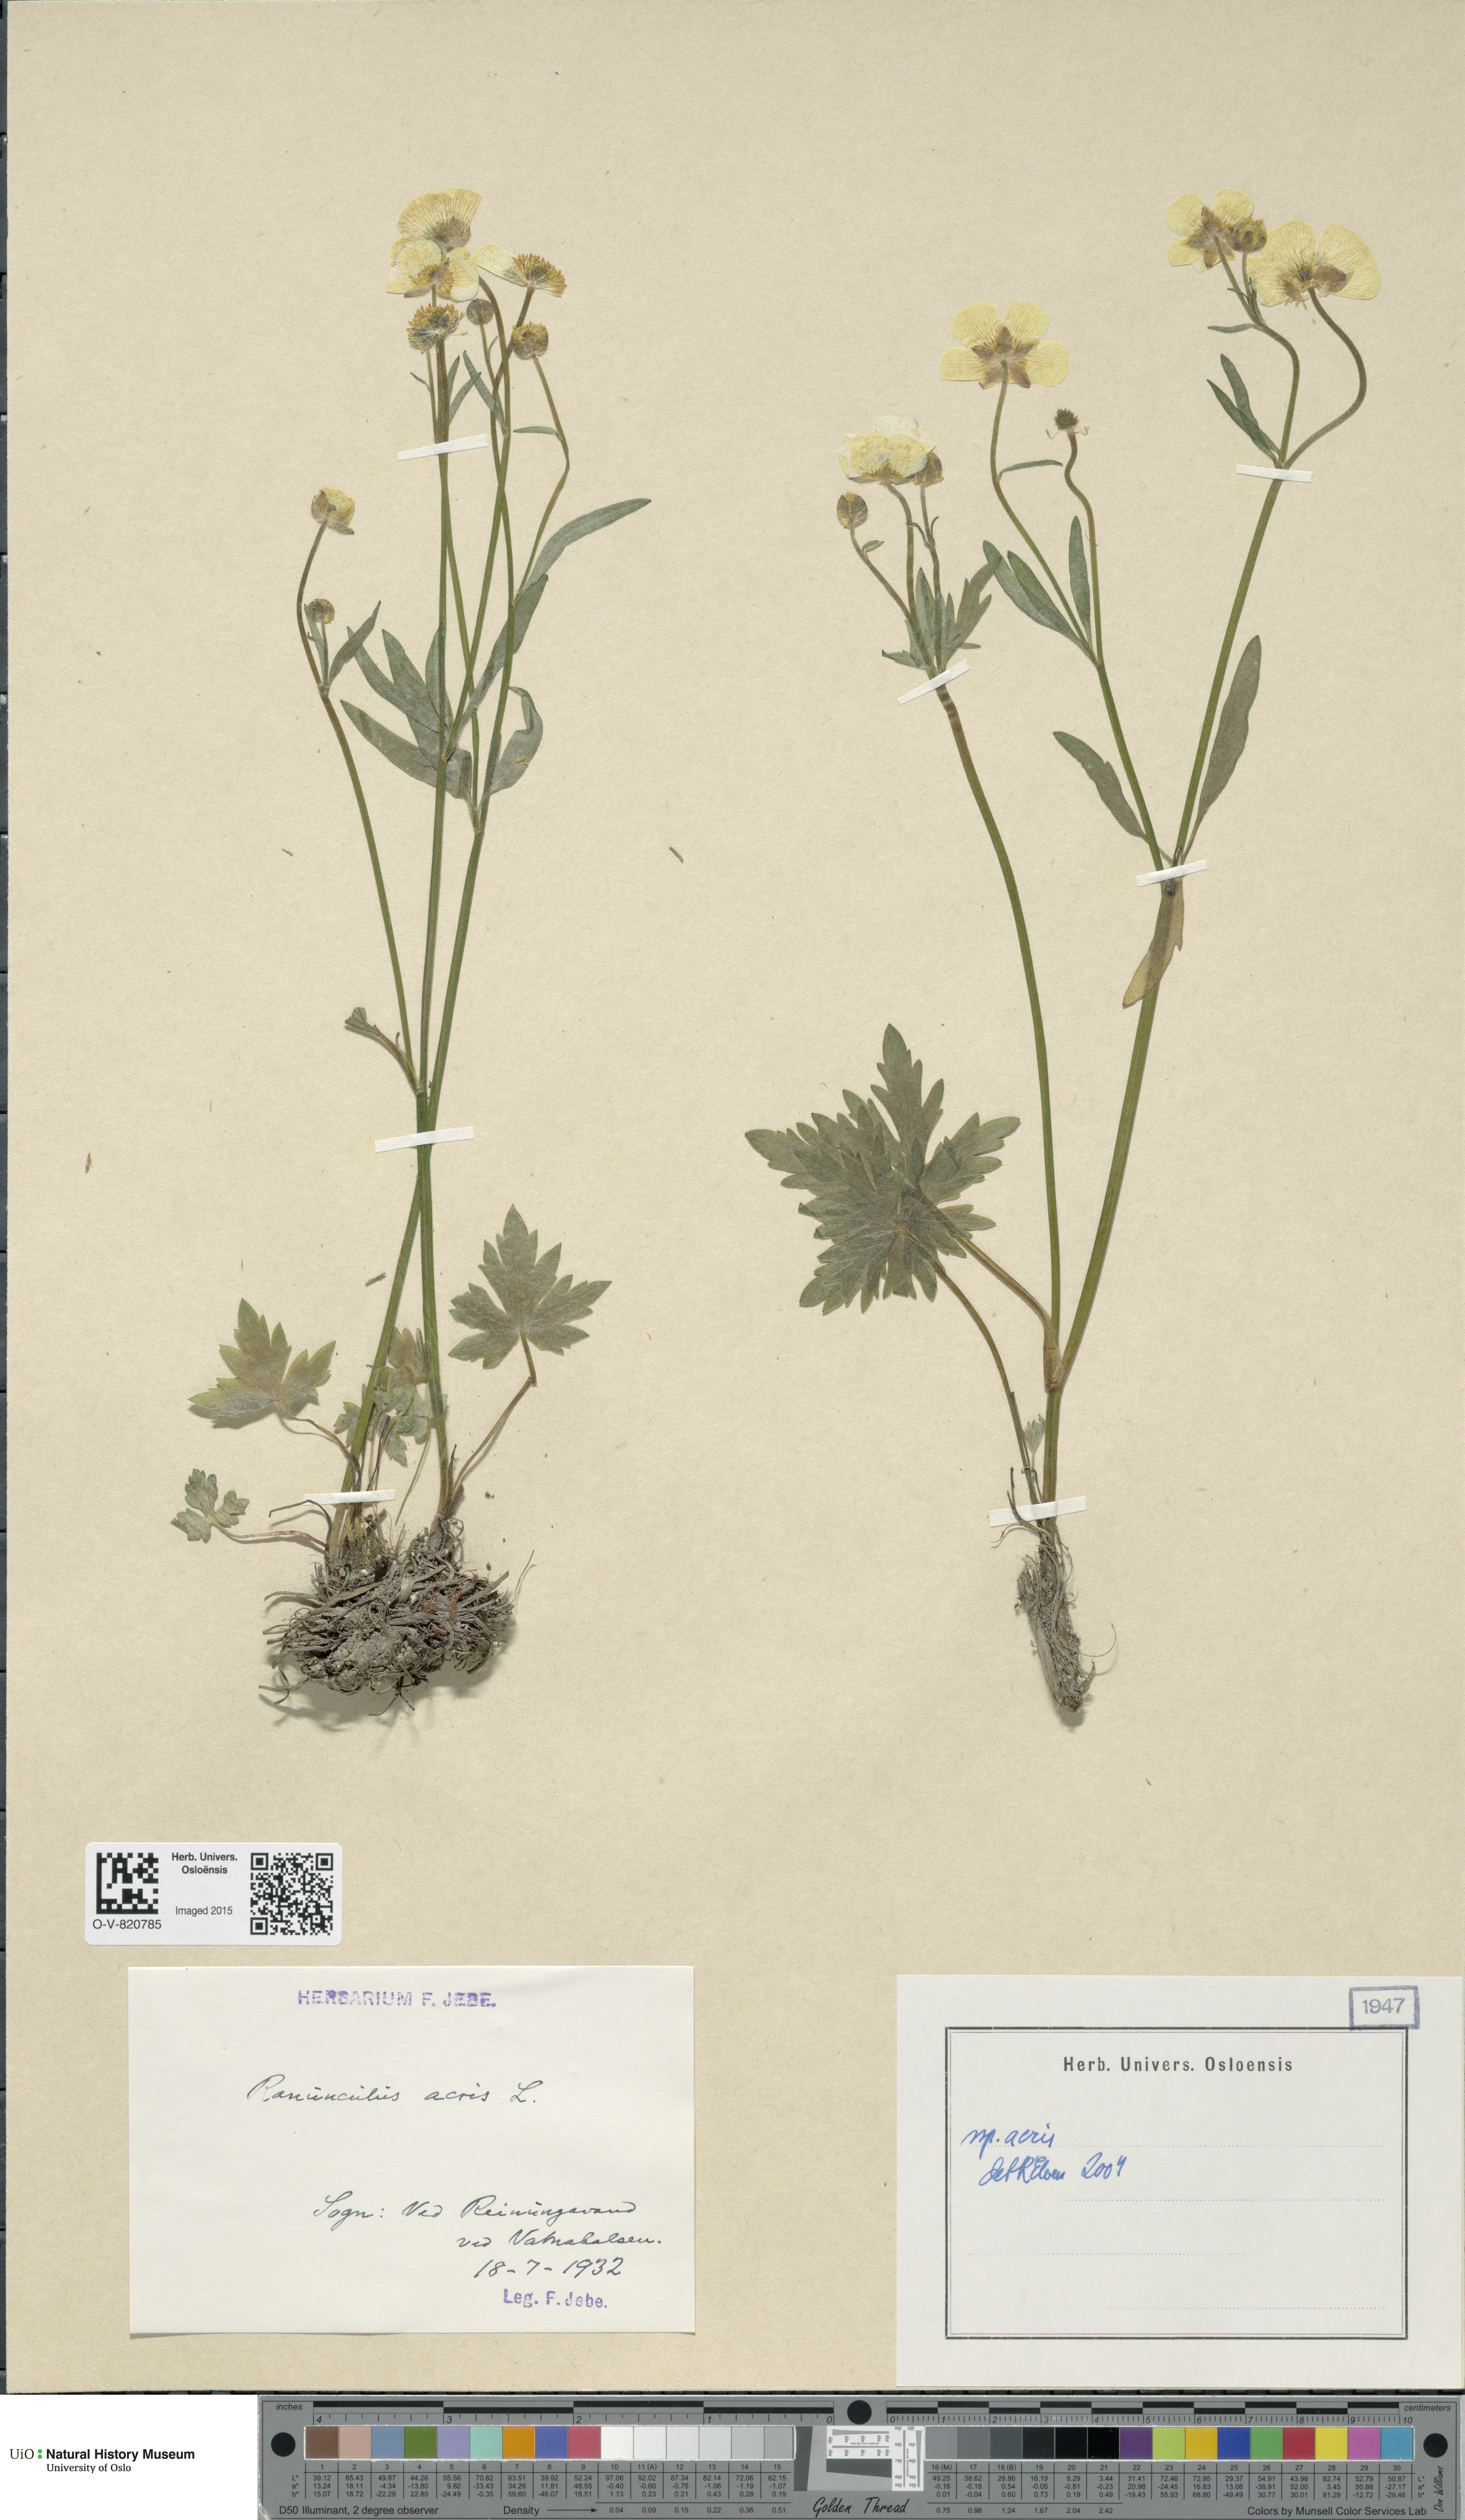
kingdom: Plantae
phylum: Tracheophyta
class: Magnoliopsida
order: Ranunculales
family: Ranunculaceae
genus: Ranunculus
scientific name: Ranunculus acris
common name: Meadow buttercup
